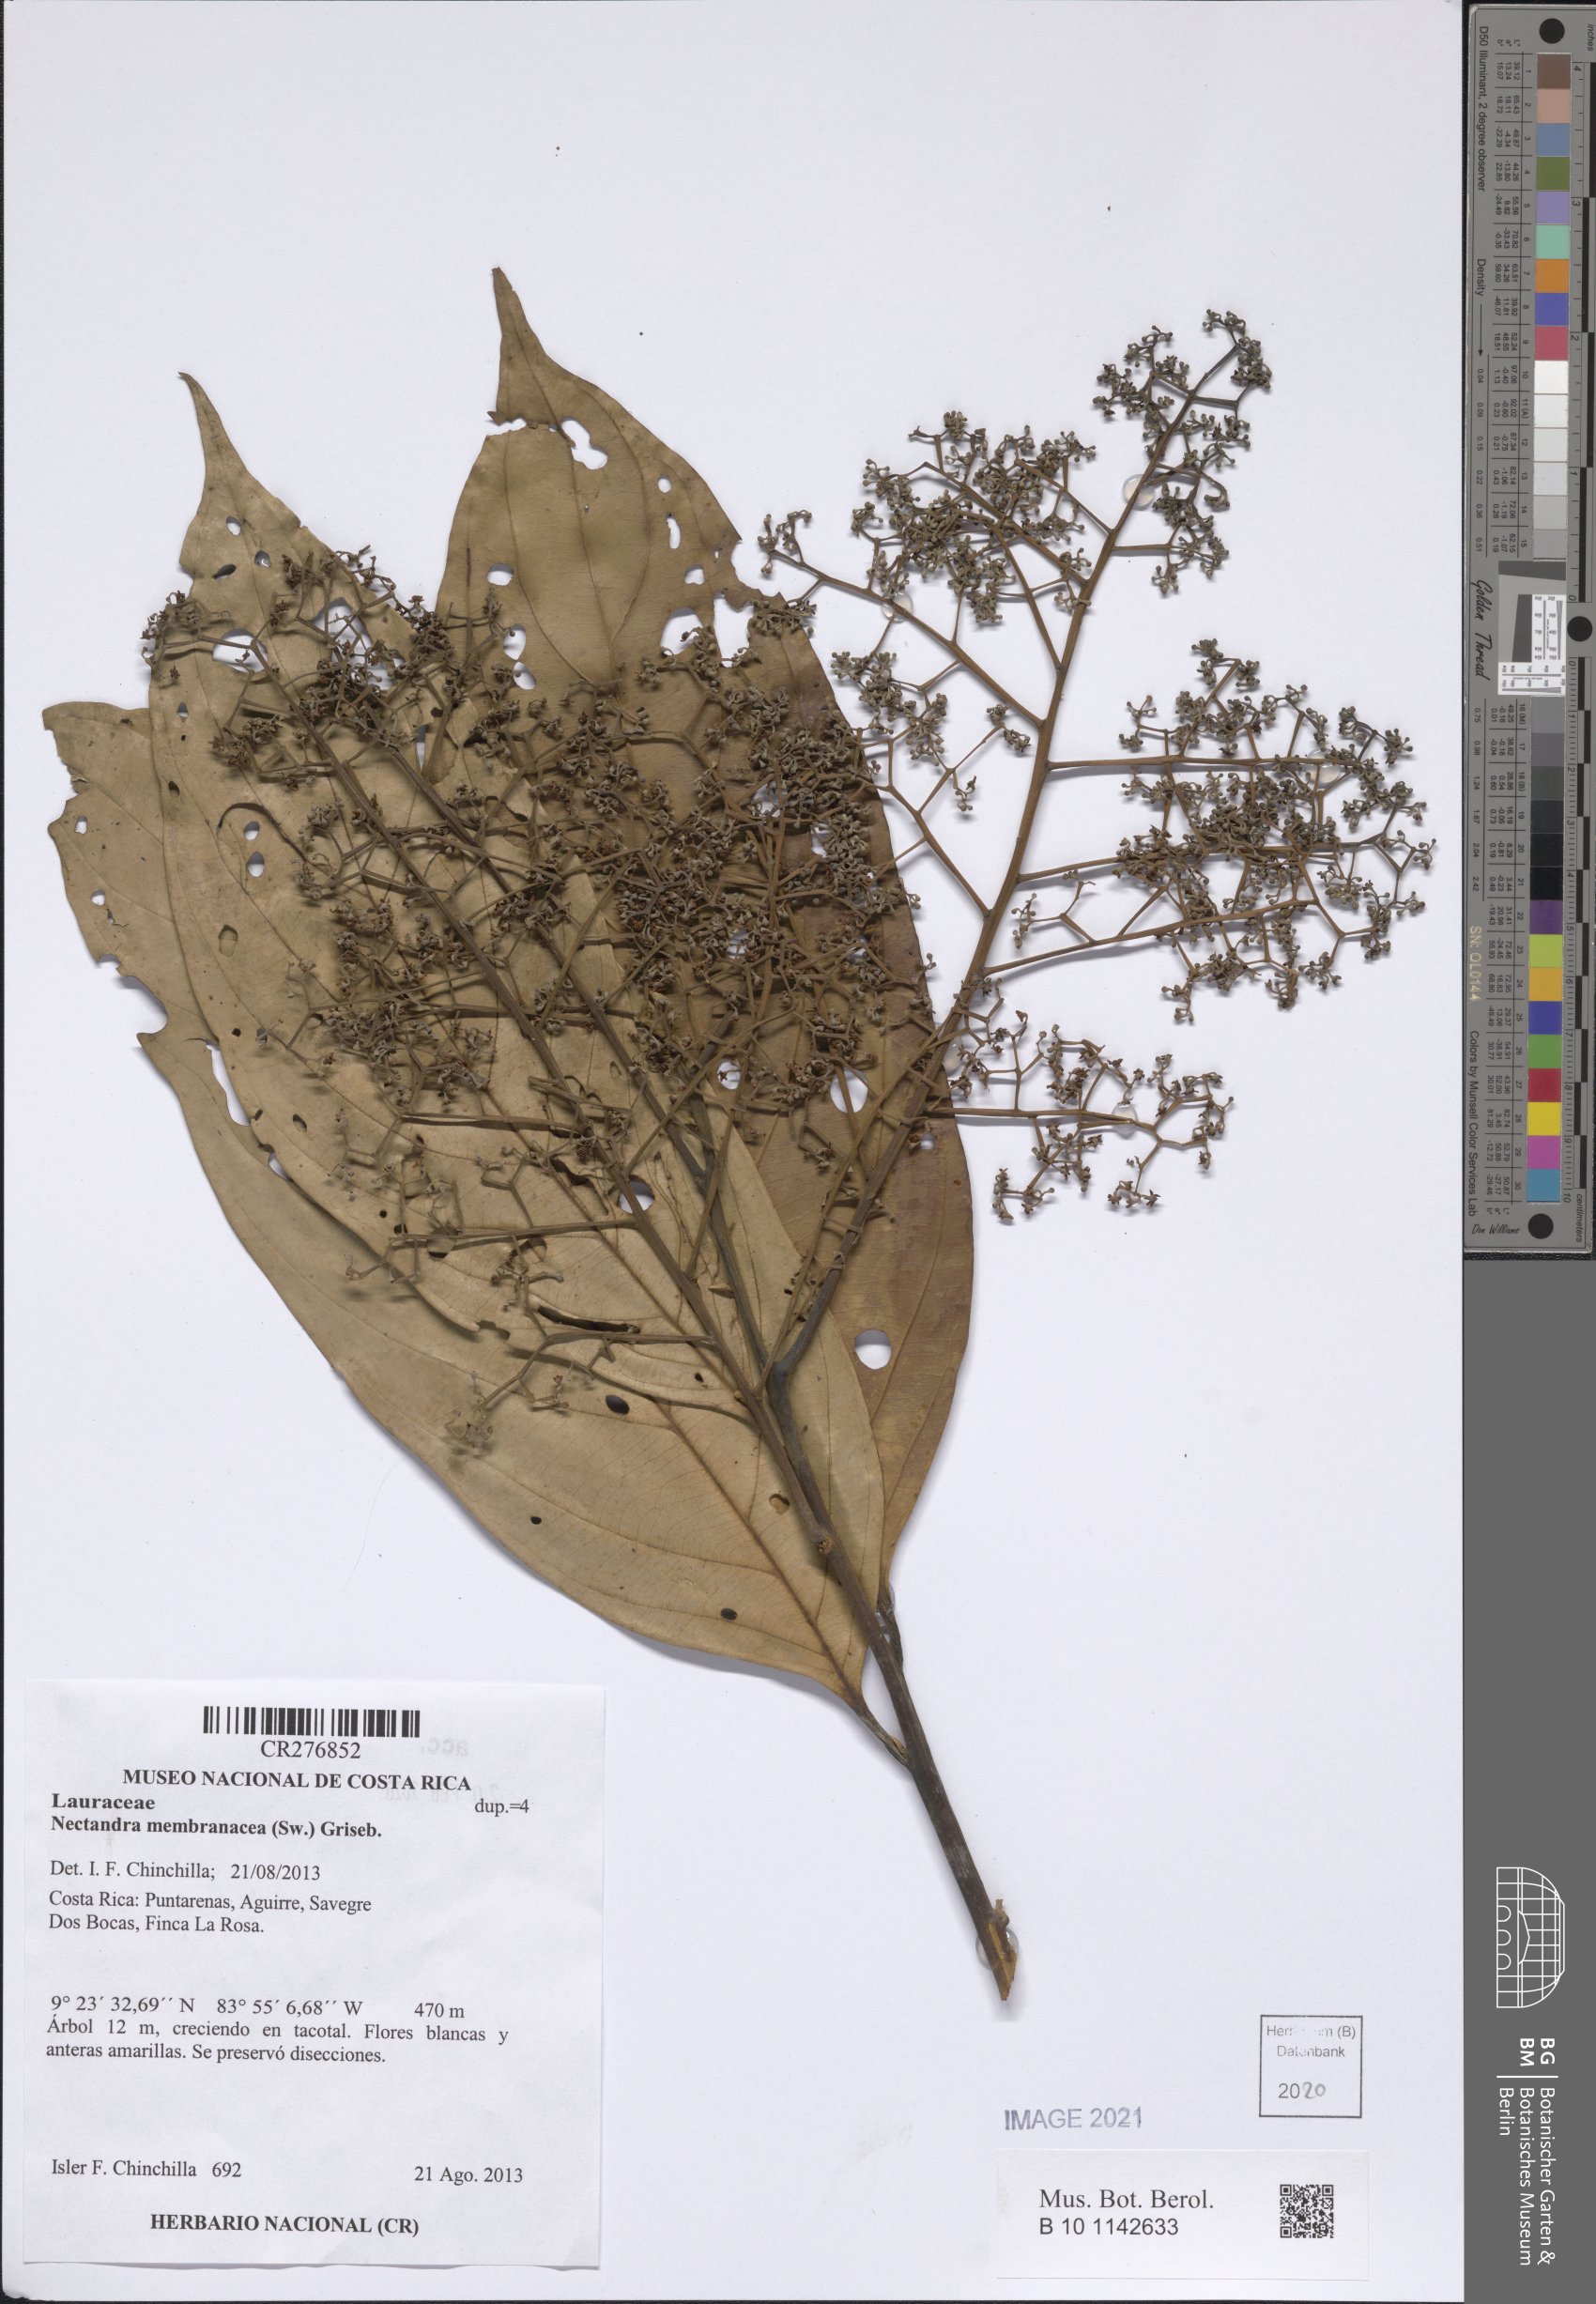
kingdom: Plantae
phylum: Tracheophyta
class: Magnoliopsida
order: Laurales
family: Lauraceae
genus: Nectandra
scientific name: Nectandra membranacea
